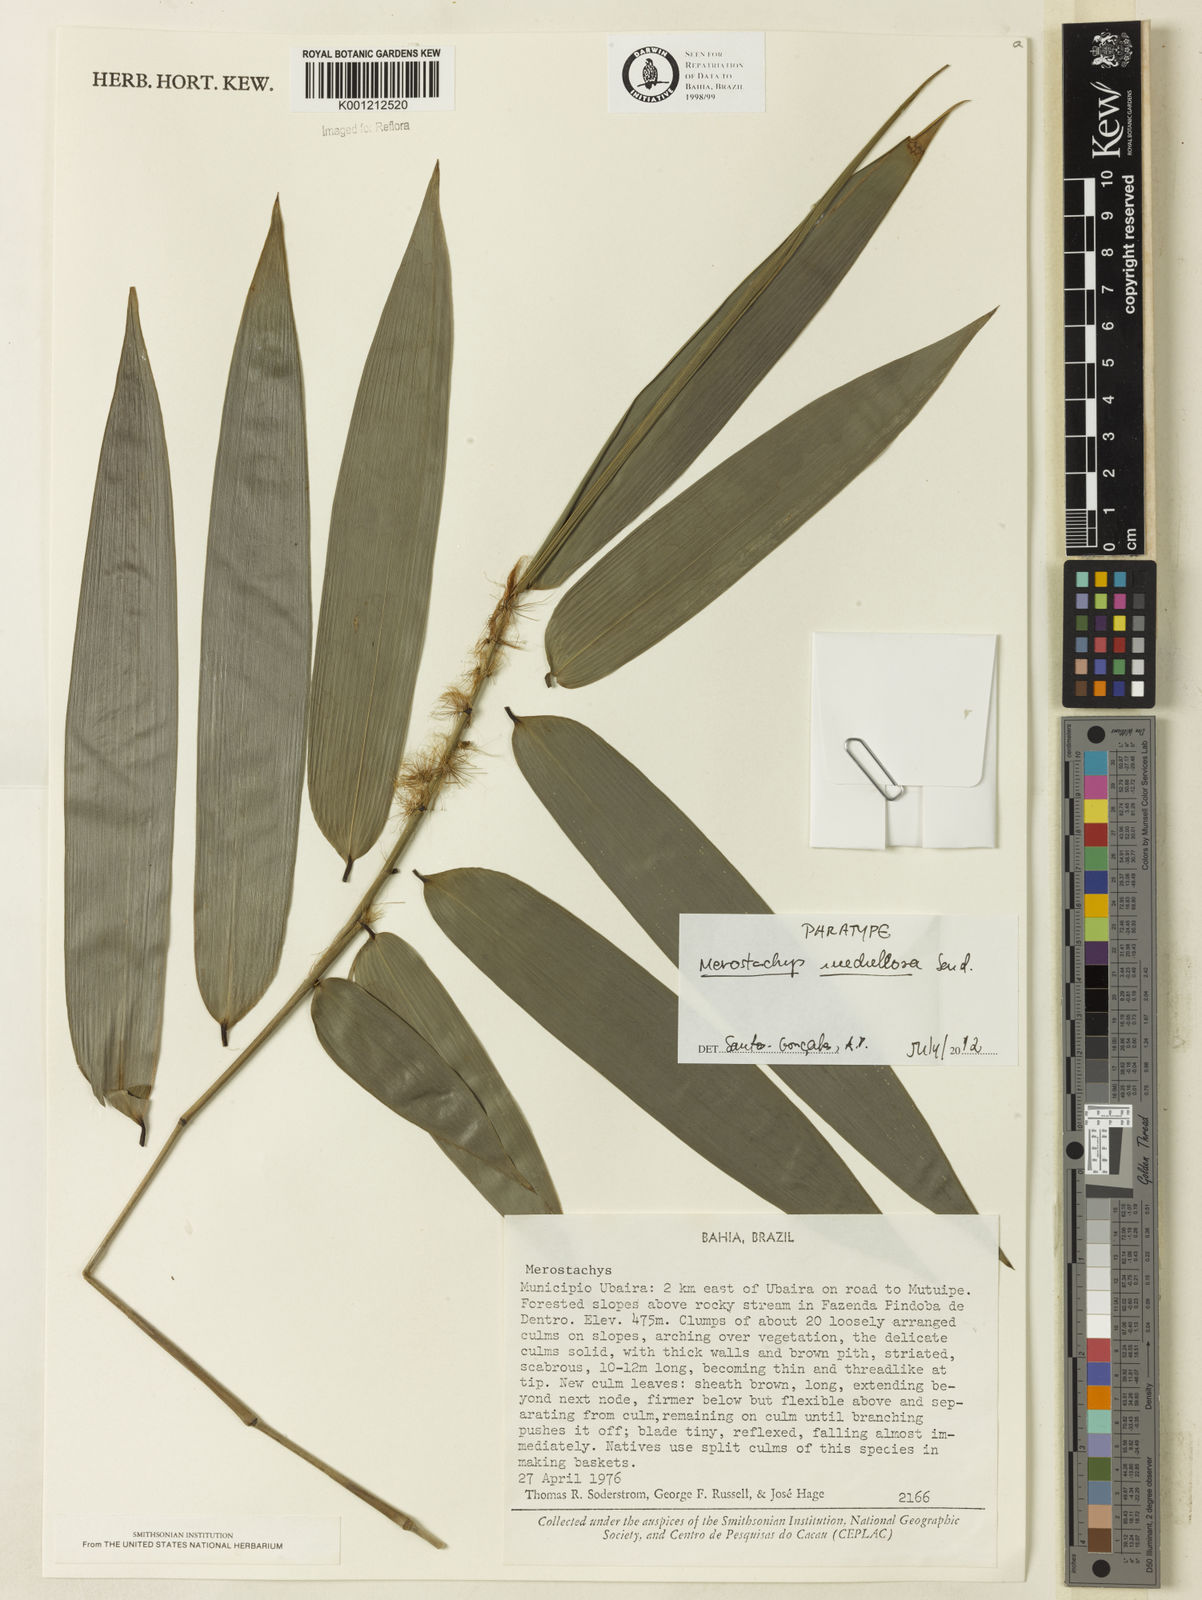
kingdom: Plantae
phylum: Tracheophyta
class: Liliopsida
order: Poales
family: Poaceae
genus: Merostachys
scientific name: Merostachys medullosa
